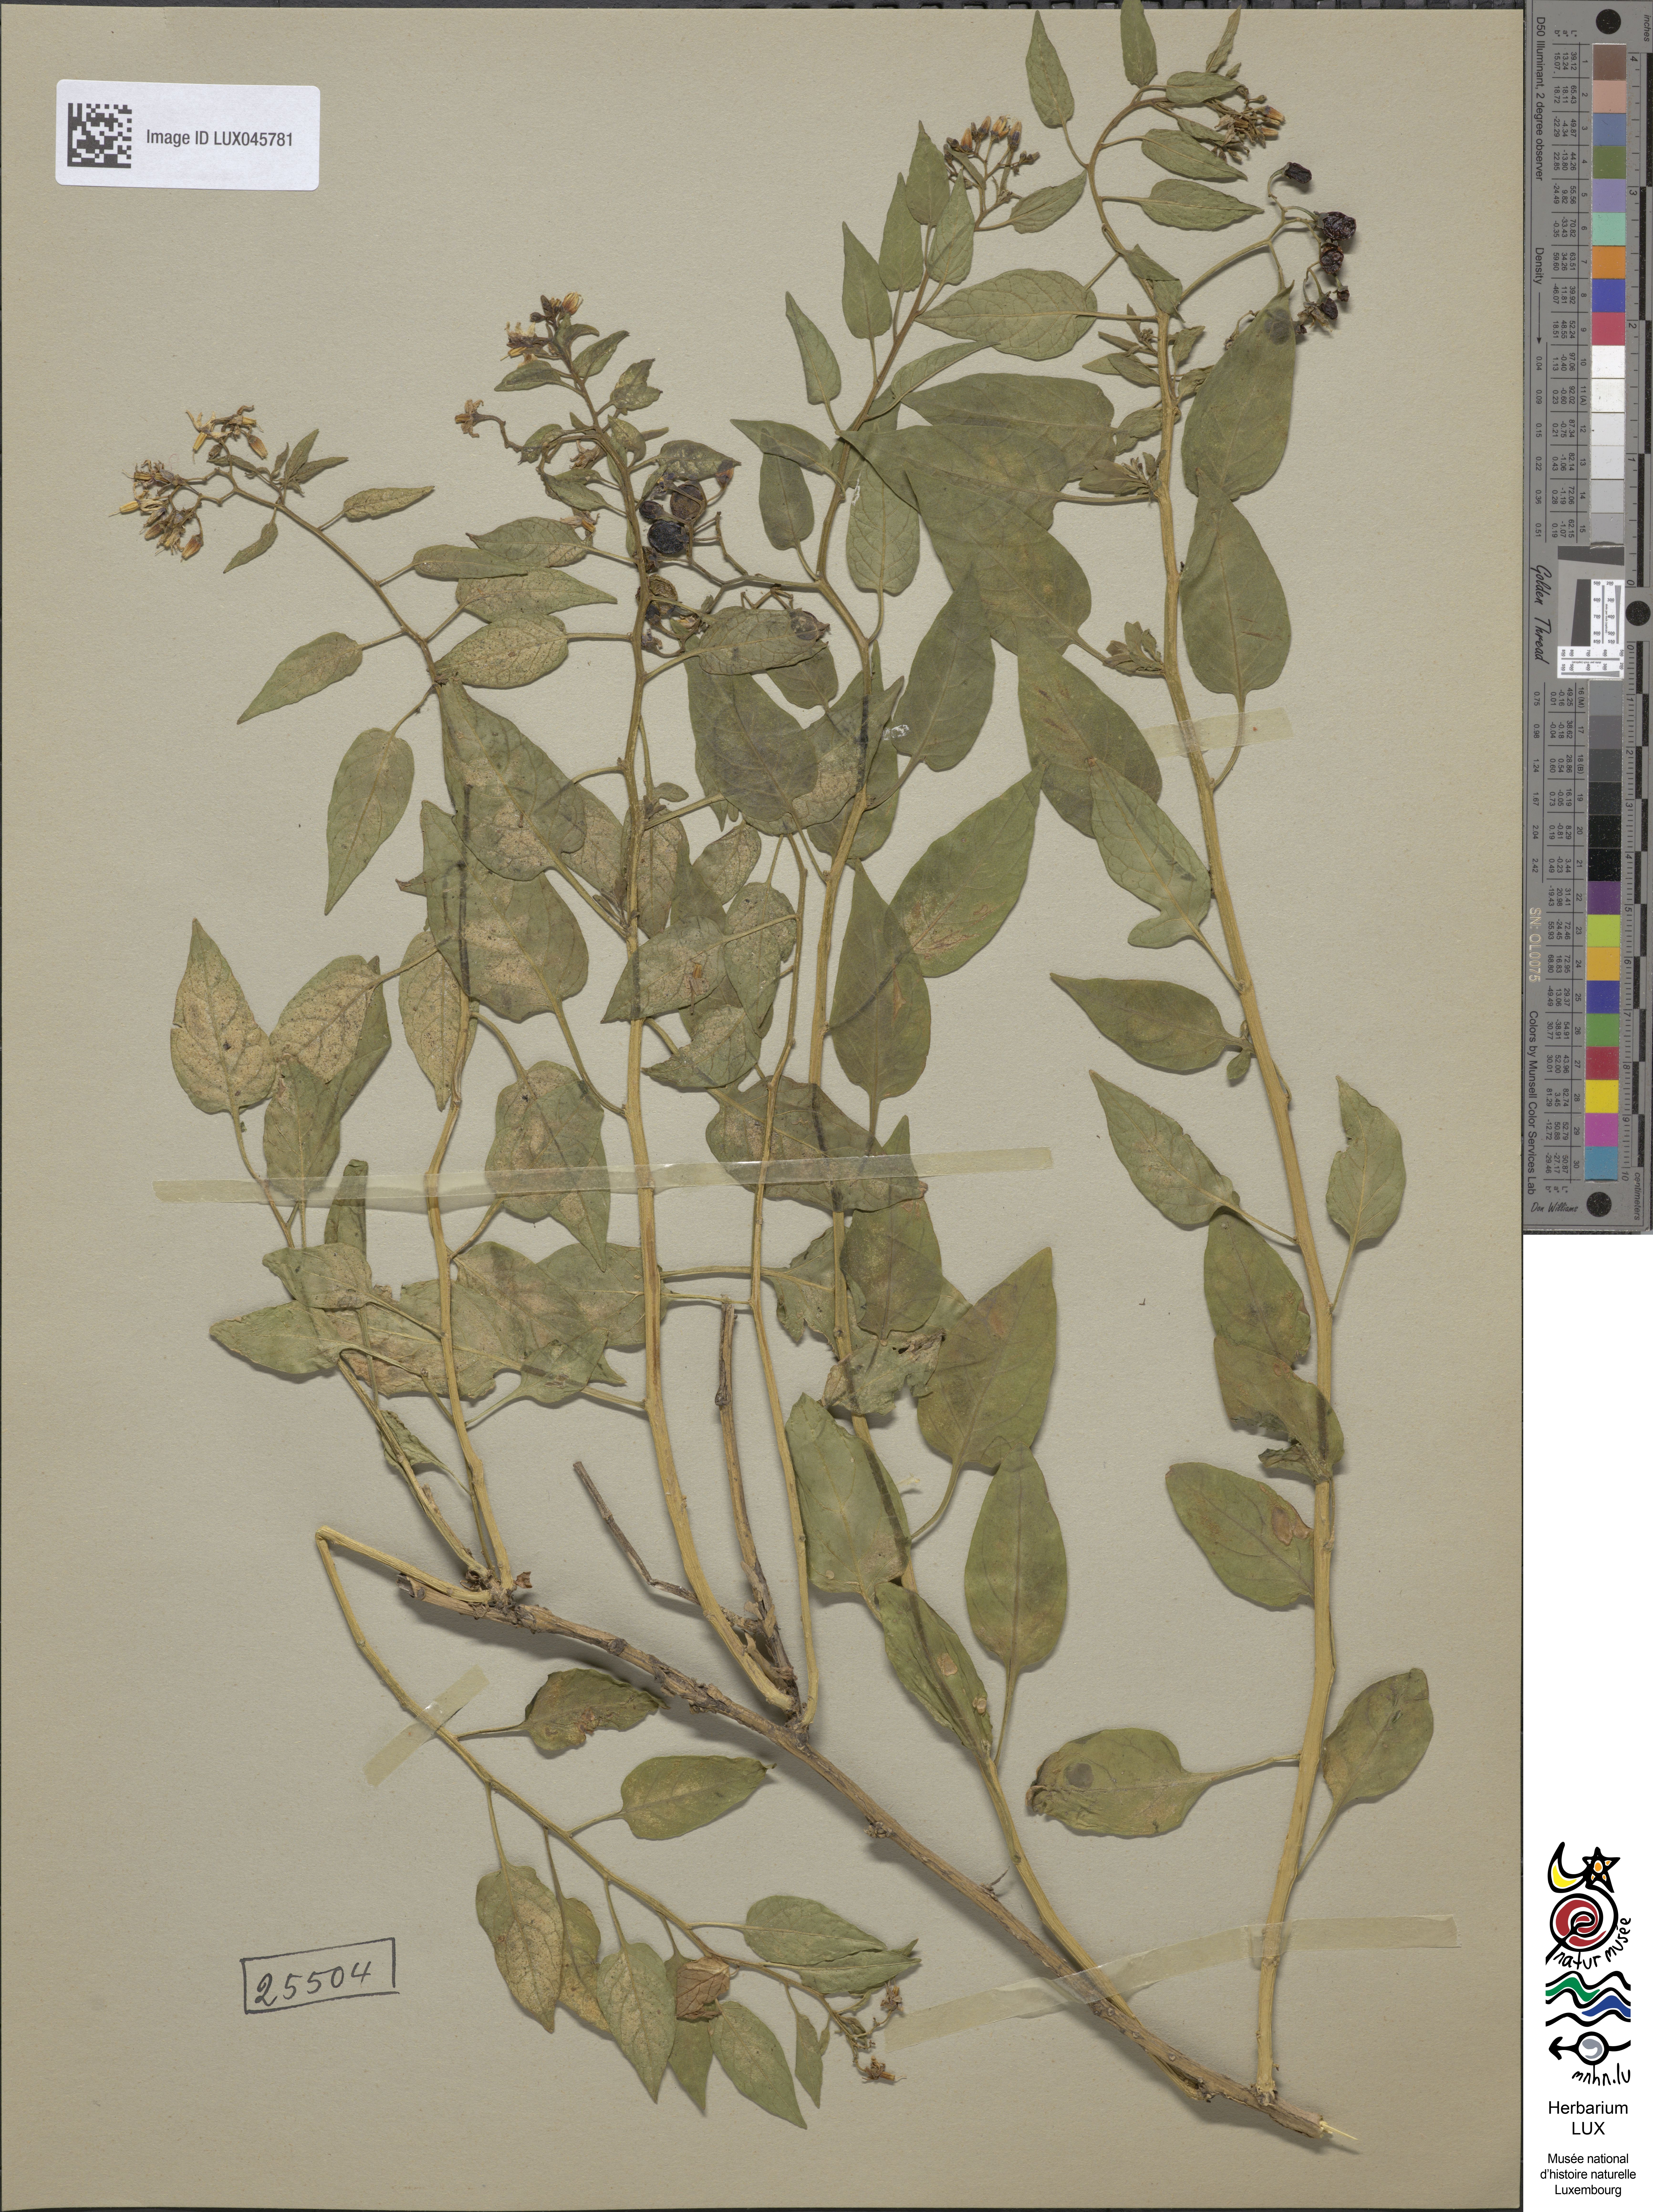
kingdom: Plantae
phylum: Tracheophyta
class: Magnoliopsida
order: Solanales
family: Solanaceae
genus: Solanum
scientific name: Solanum dulcamara
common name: Climbing nightshade
